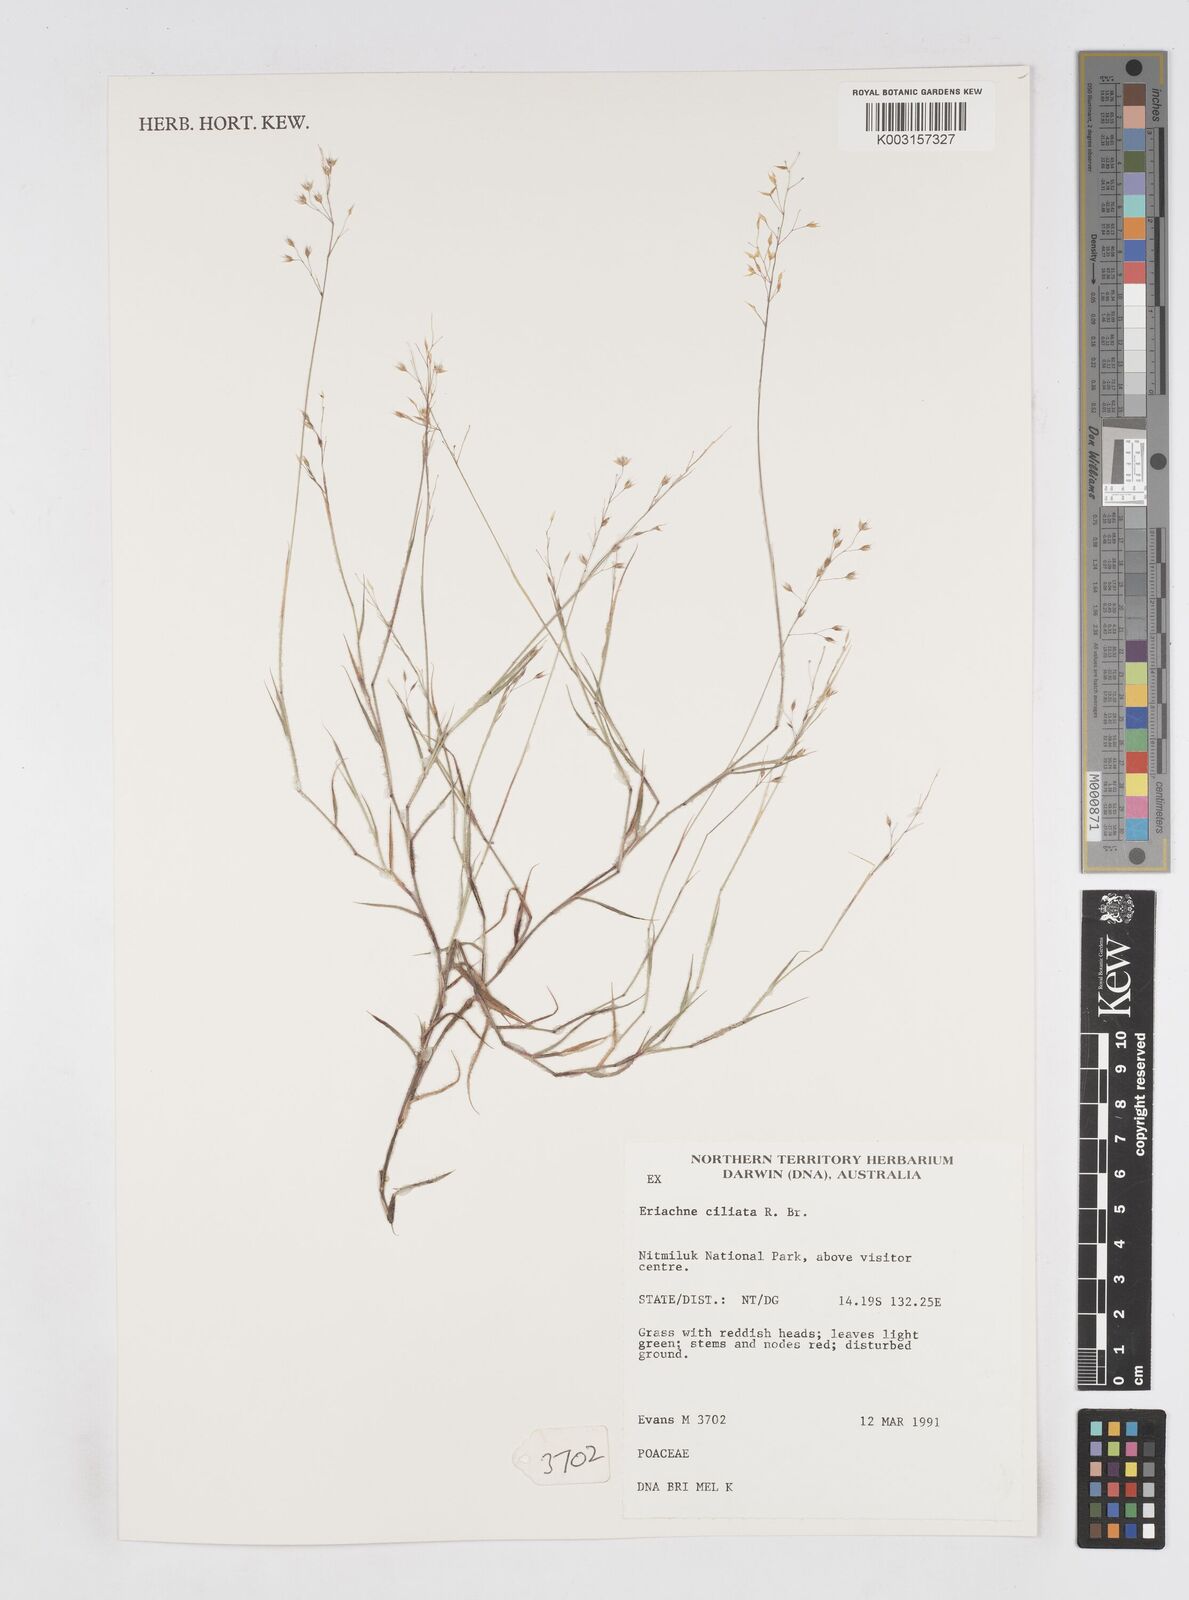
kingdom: Plantae
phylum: Tracheophyta
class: Liliopsida
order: Poales
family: Poaceae
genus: Eriachne
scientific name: Eriachne ciliata
